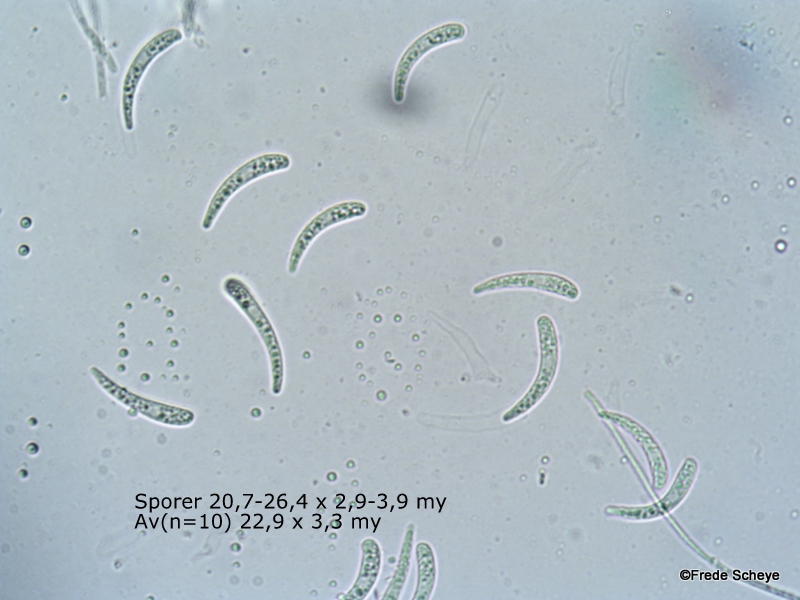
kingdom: Fungi
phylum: Ascomycota
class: Leotiomycetes
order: Helotiales
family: Helotiaceae
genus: Hymenoscyphus
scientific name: Hymenoscyphus serotinus
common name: krumsporet stilkskive
